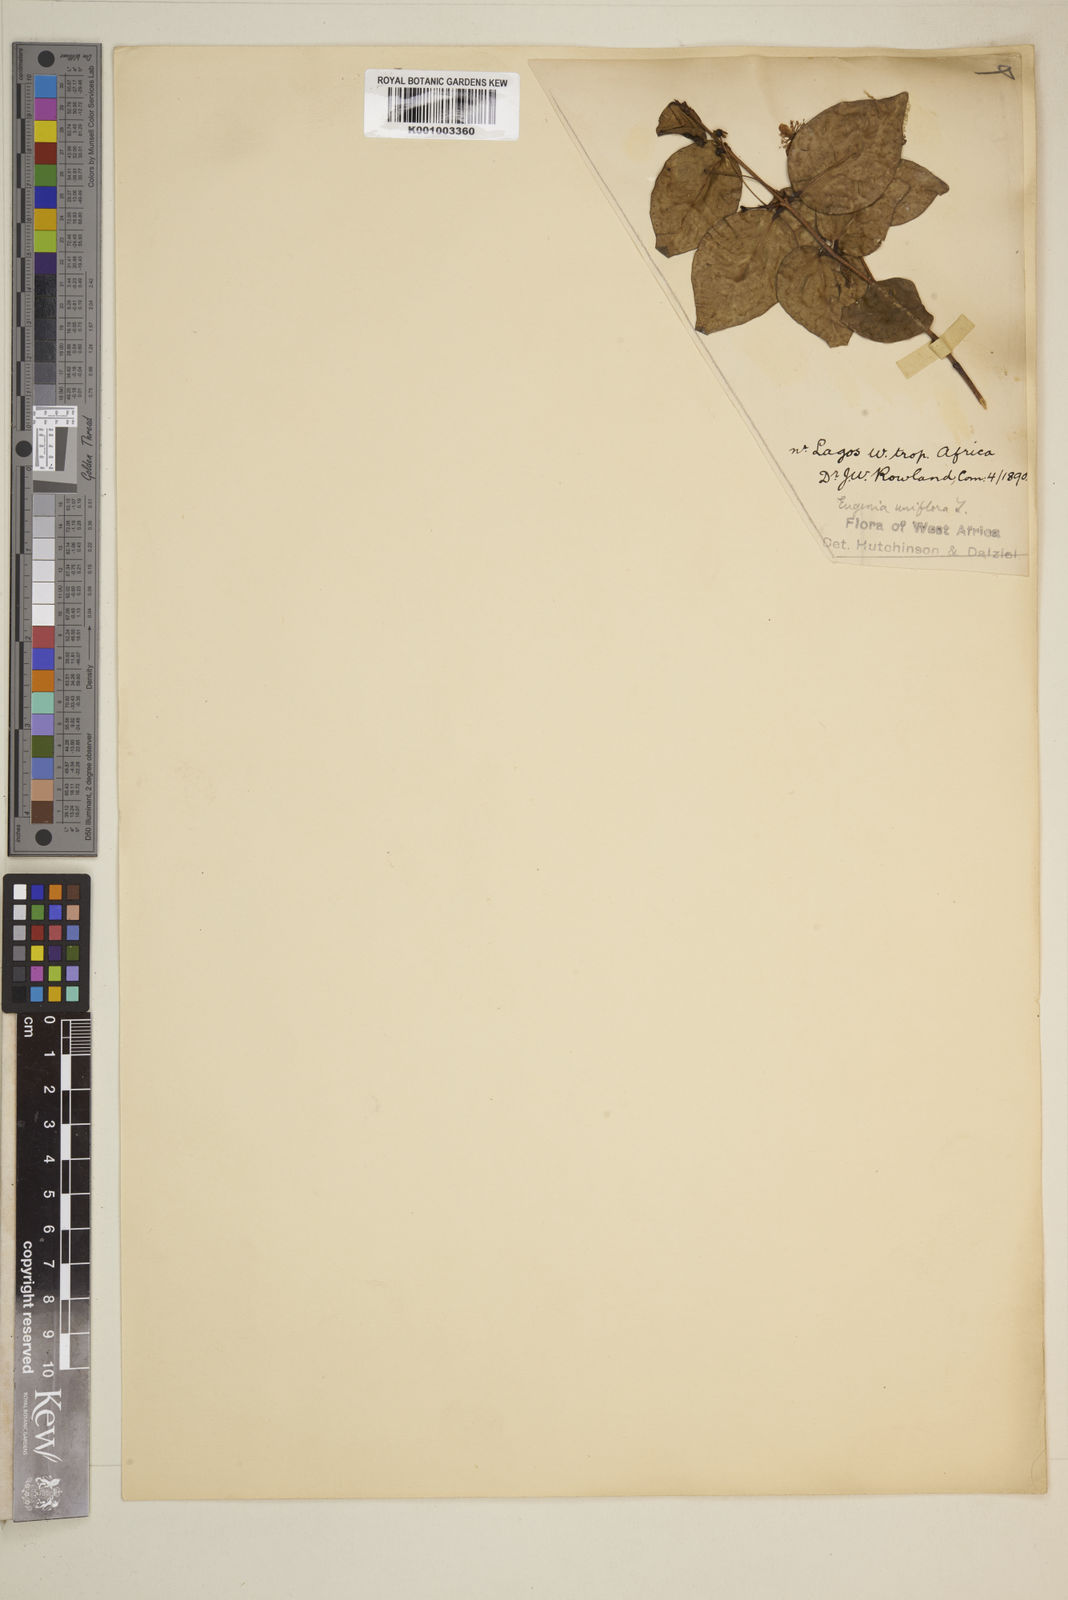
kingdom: Plantae
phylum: Tracheophyta
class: Magnoliopsida
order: Myrtales
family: Myrtaceae
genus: Eugenia
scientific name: Eugenia uniflora
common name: Surinam cherry
